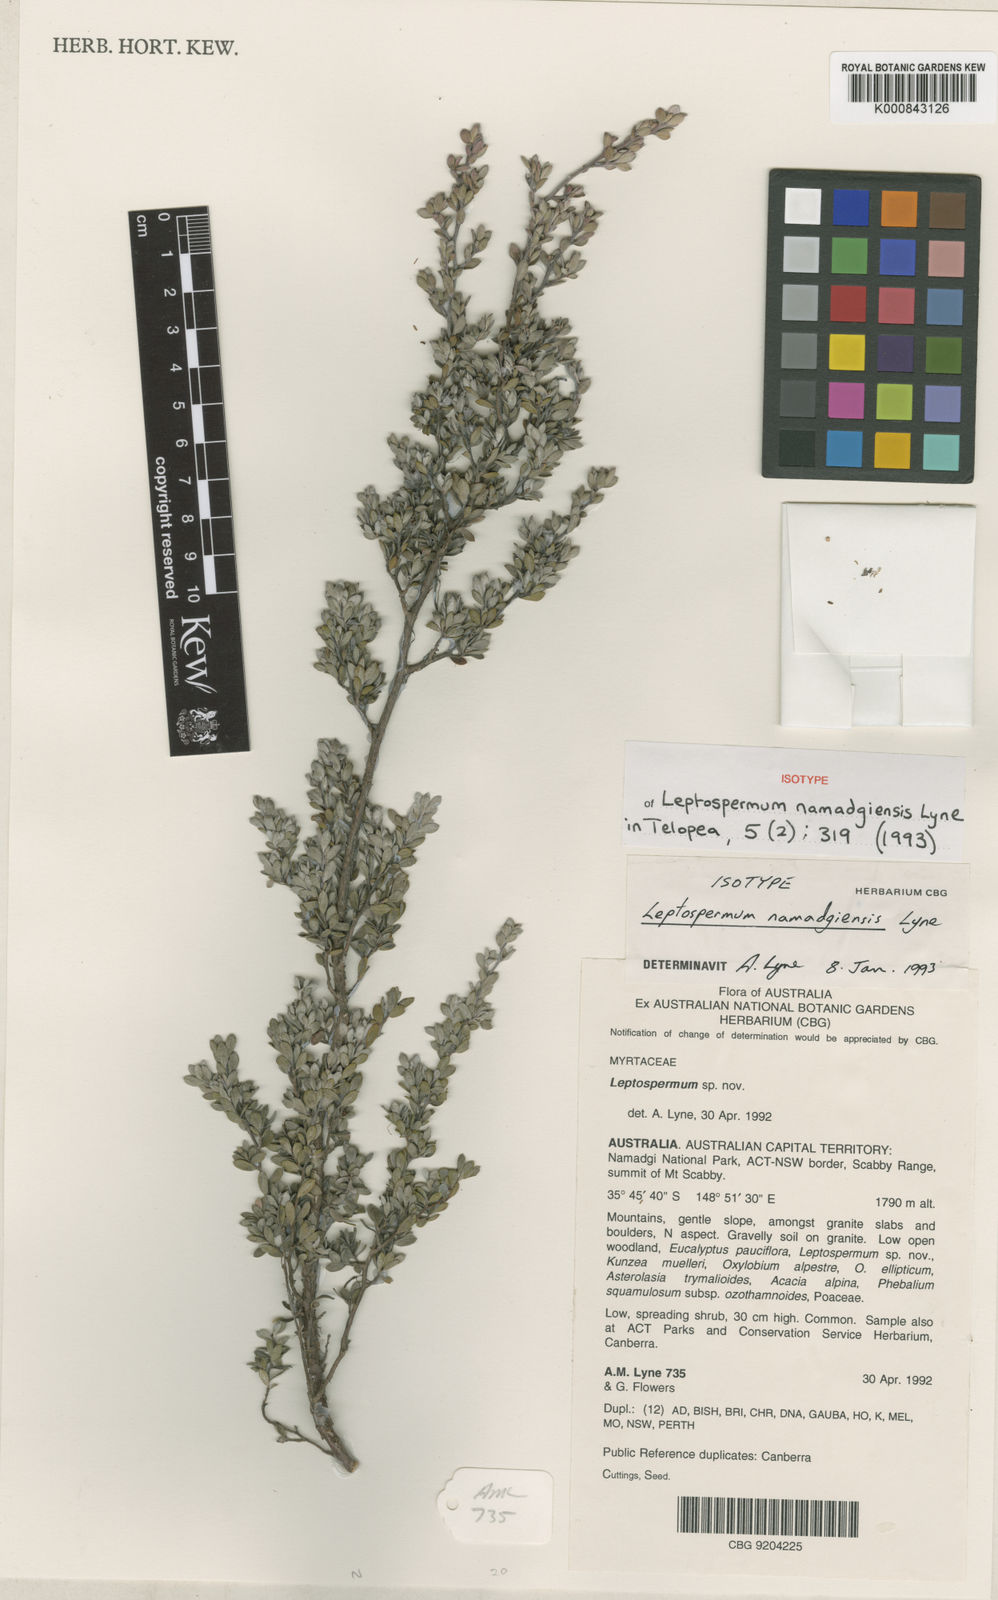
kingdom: Plantae
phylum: Tracheophyta
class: Magnoliopsida
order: Myrtales
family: Myrtaceae
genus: Leptospermum
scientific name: Leptospermum namadgiensis
